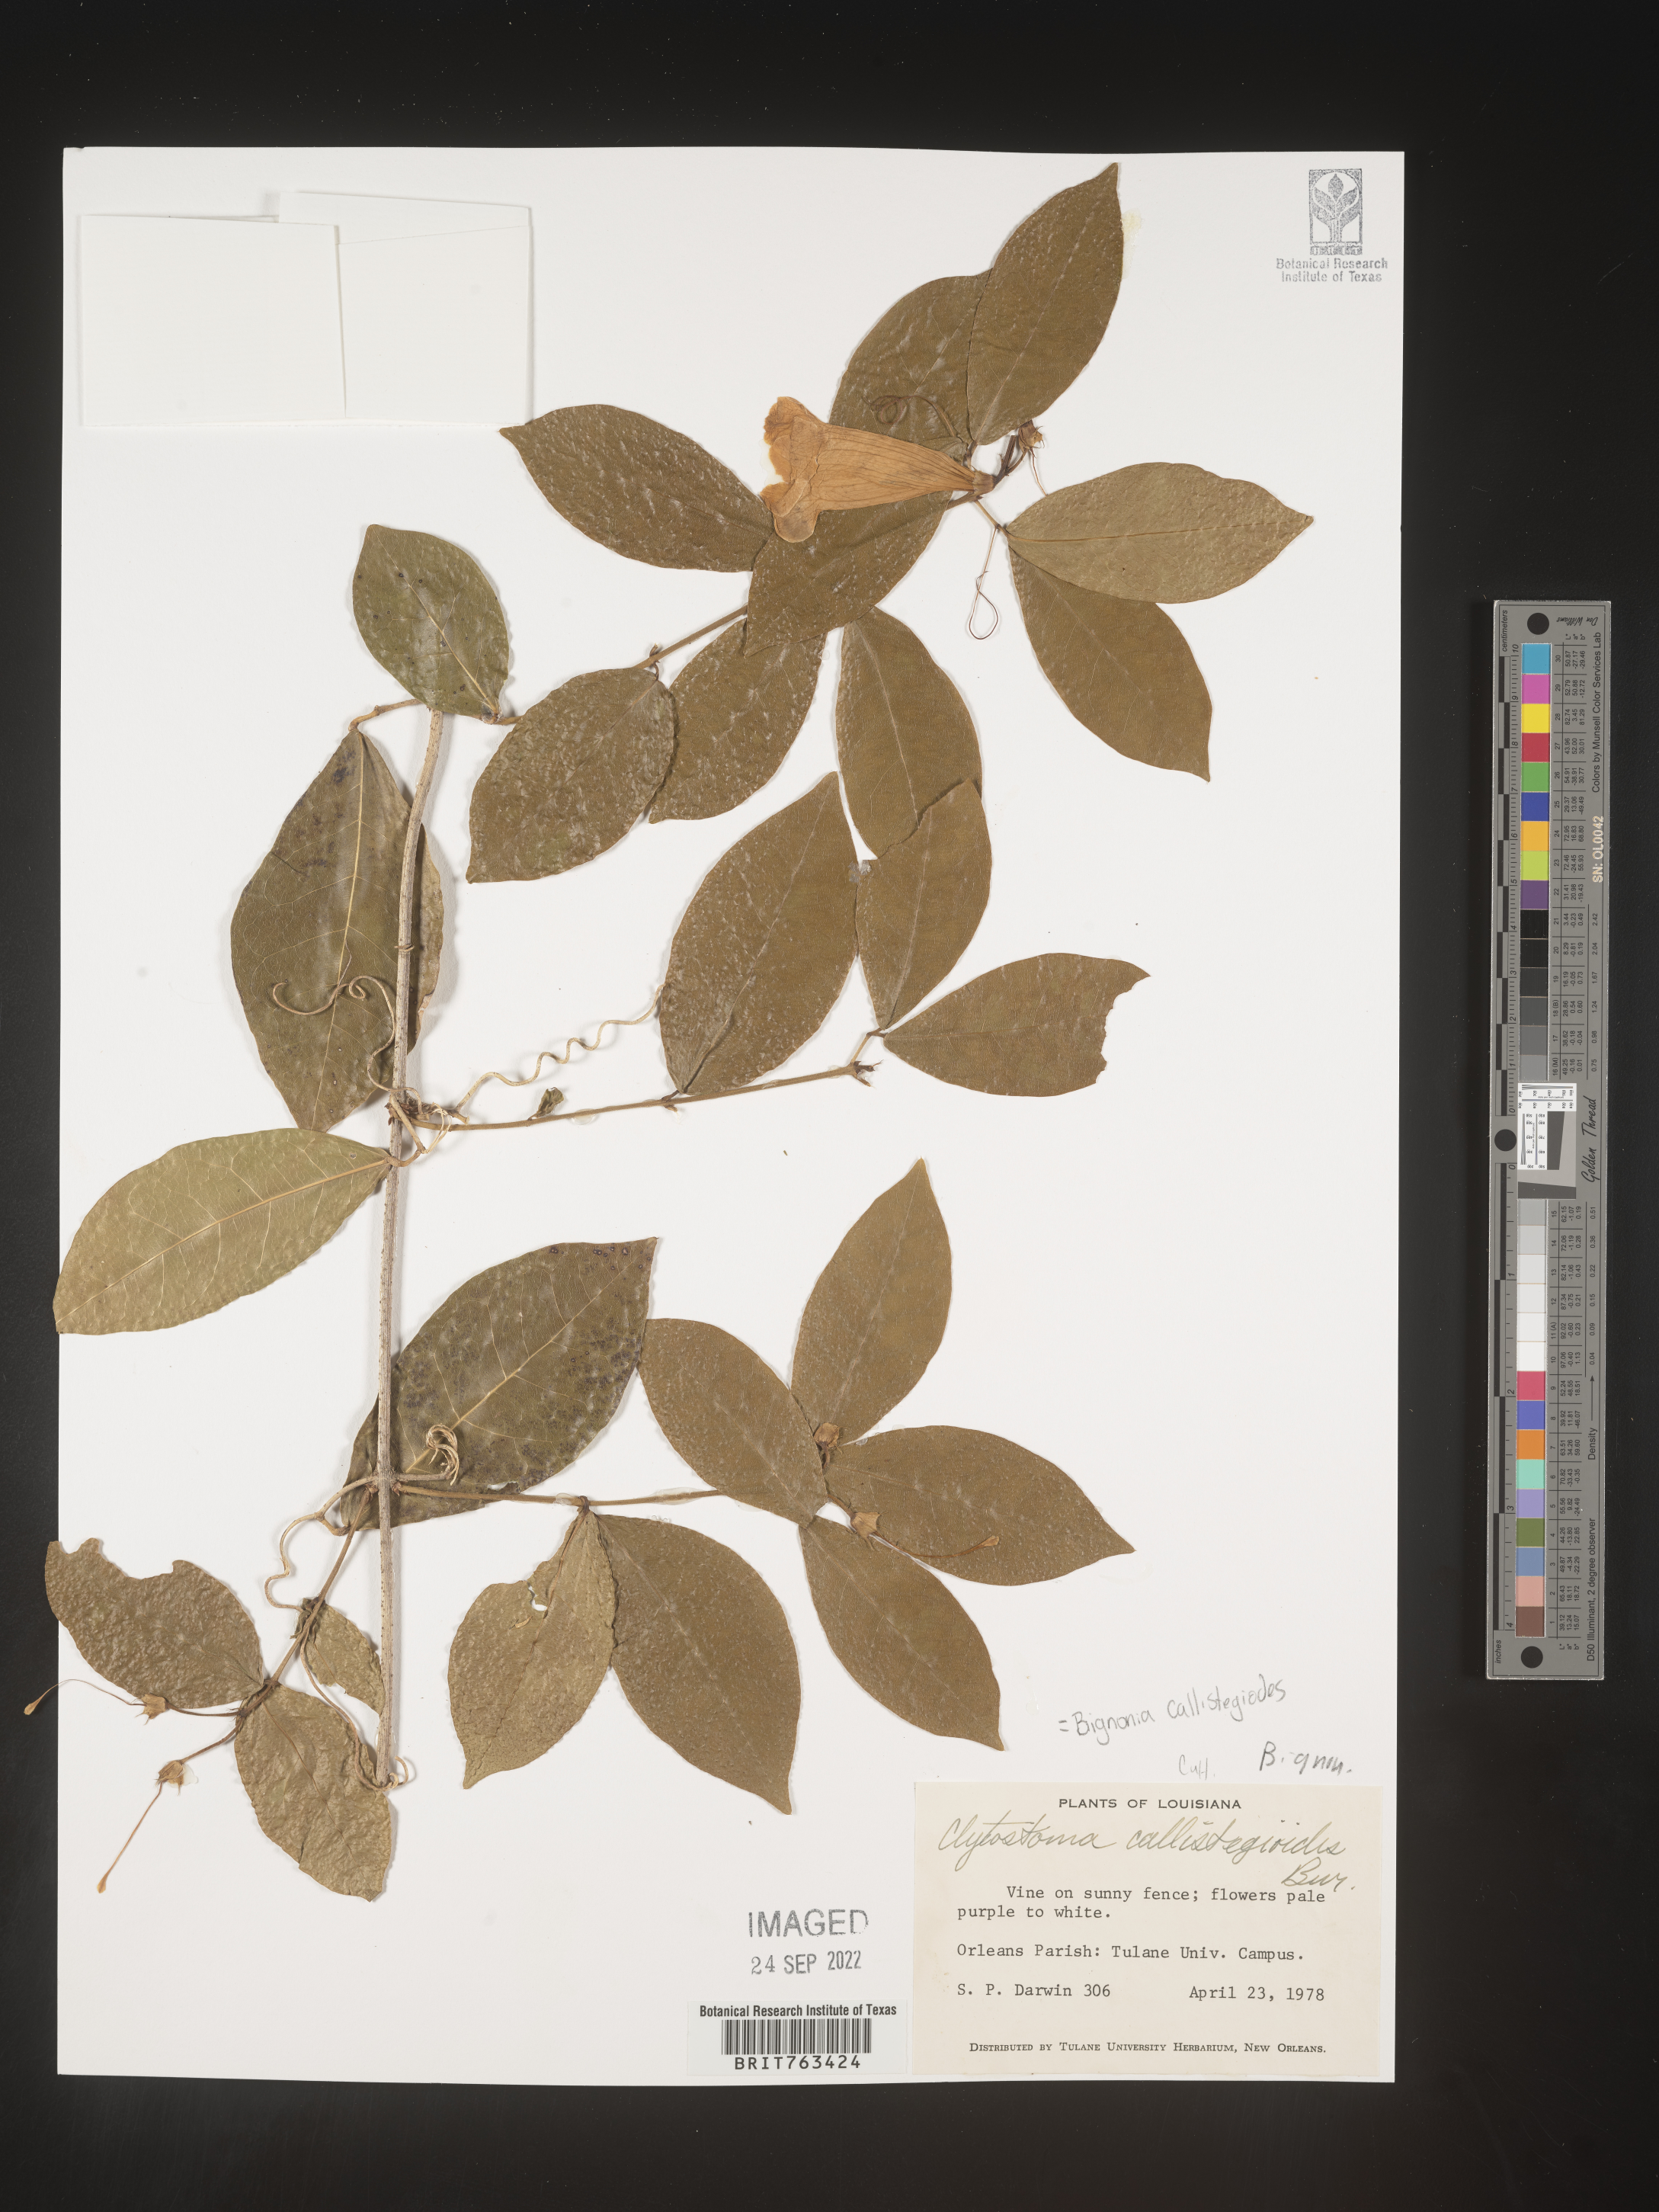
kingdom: Plantae
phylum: Tracheophyta
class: Magnoliopsida
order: Lamiales
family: Bignoniaceae
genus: Bignonia
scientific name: Bignonia
